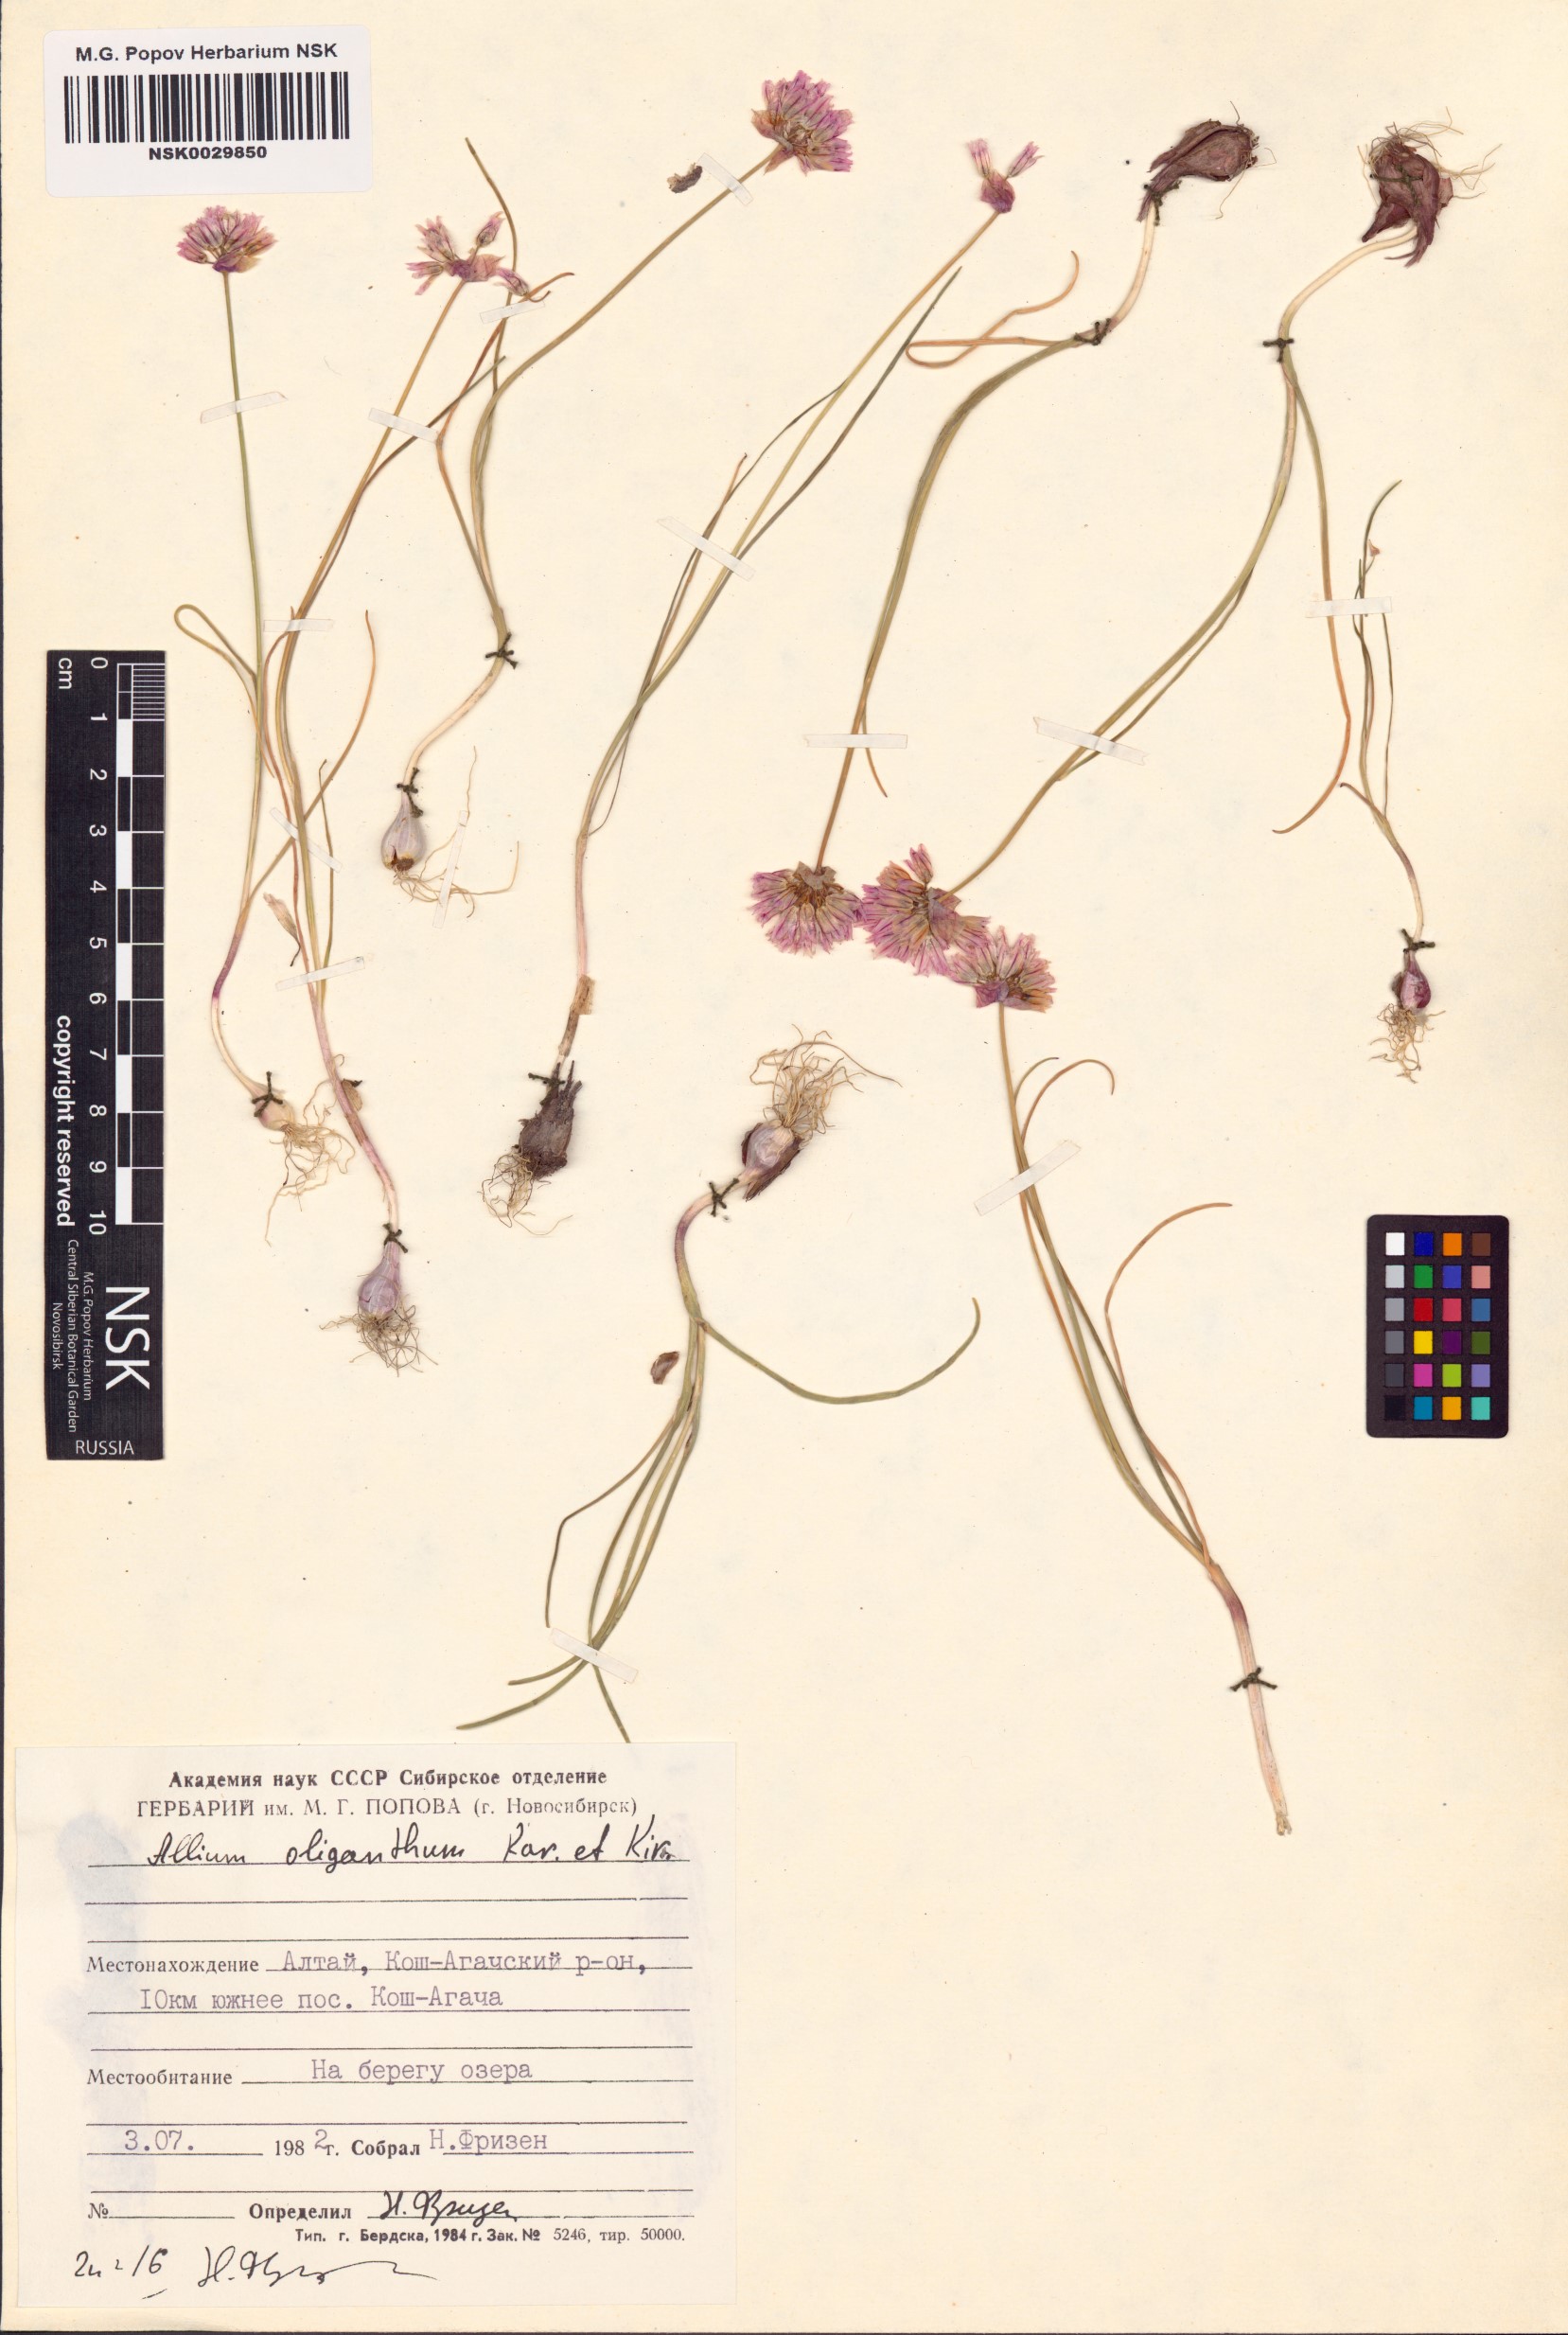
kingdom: Plantae
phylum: Tracheophyta
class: Liliopsida
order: Asparagales
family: Amaryllidaceae
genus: Allium
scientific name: Allium oliganthum
